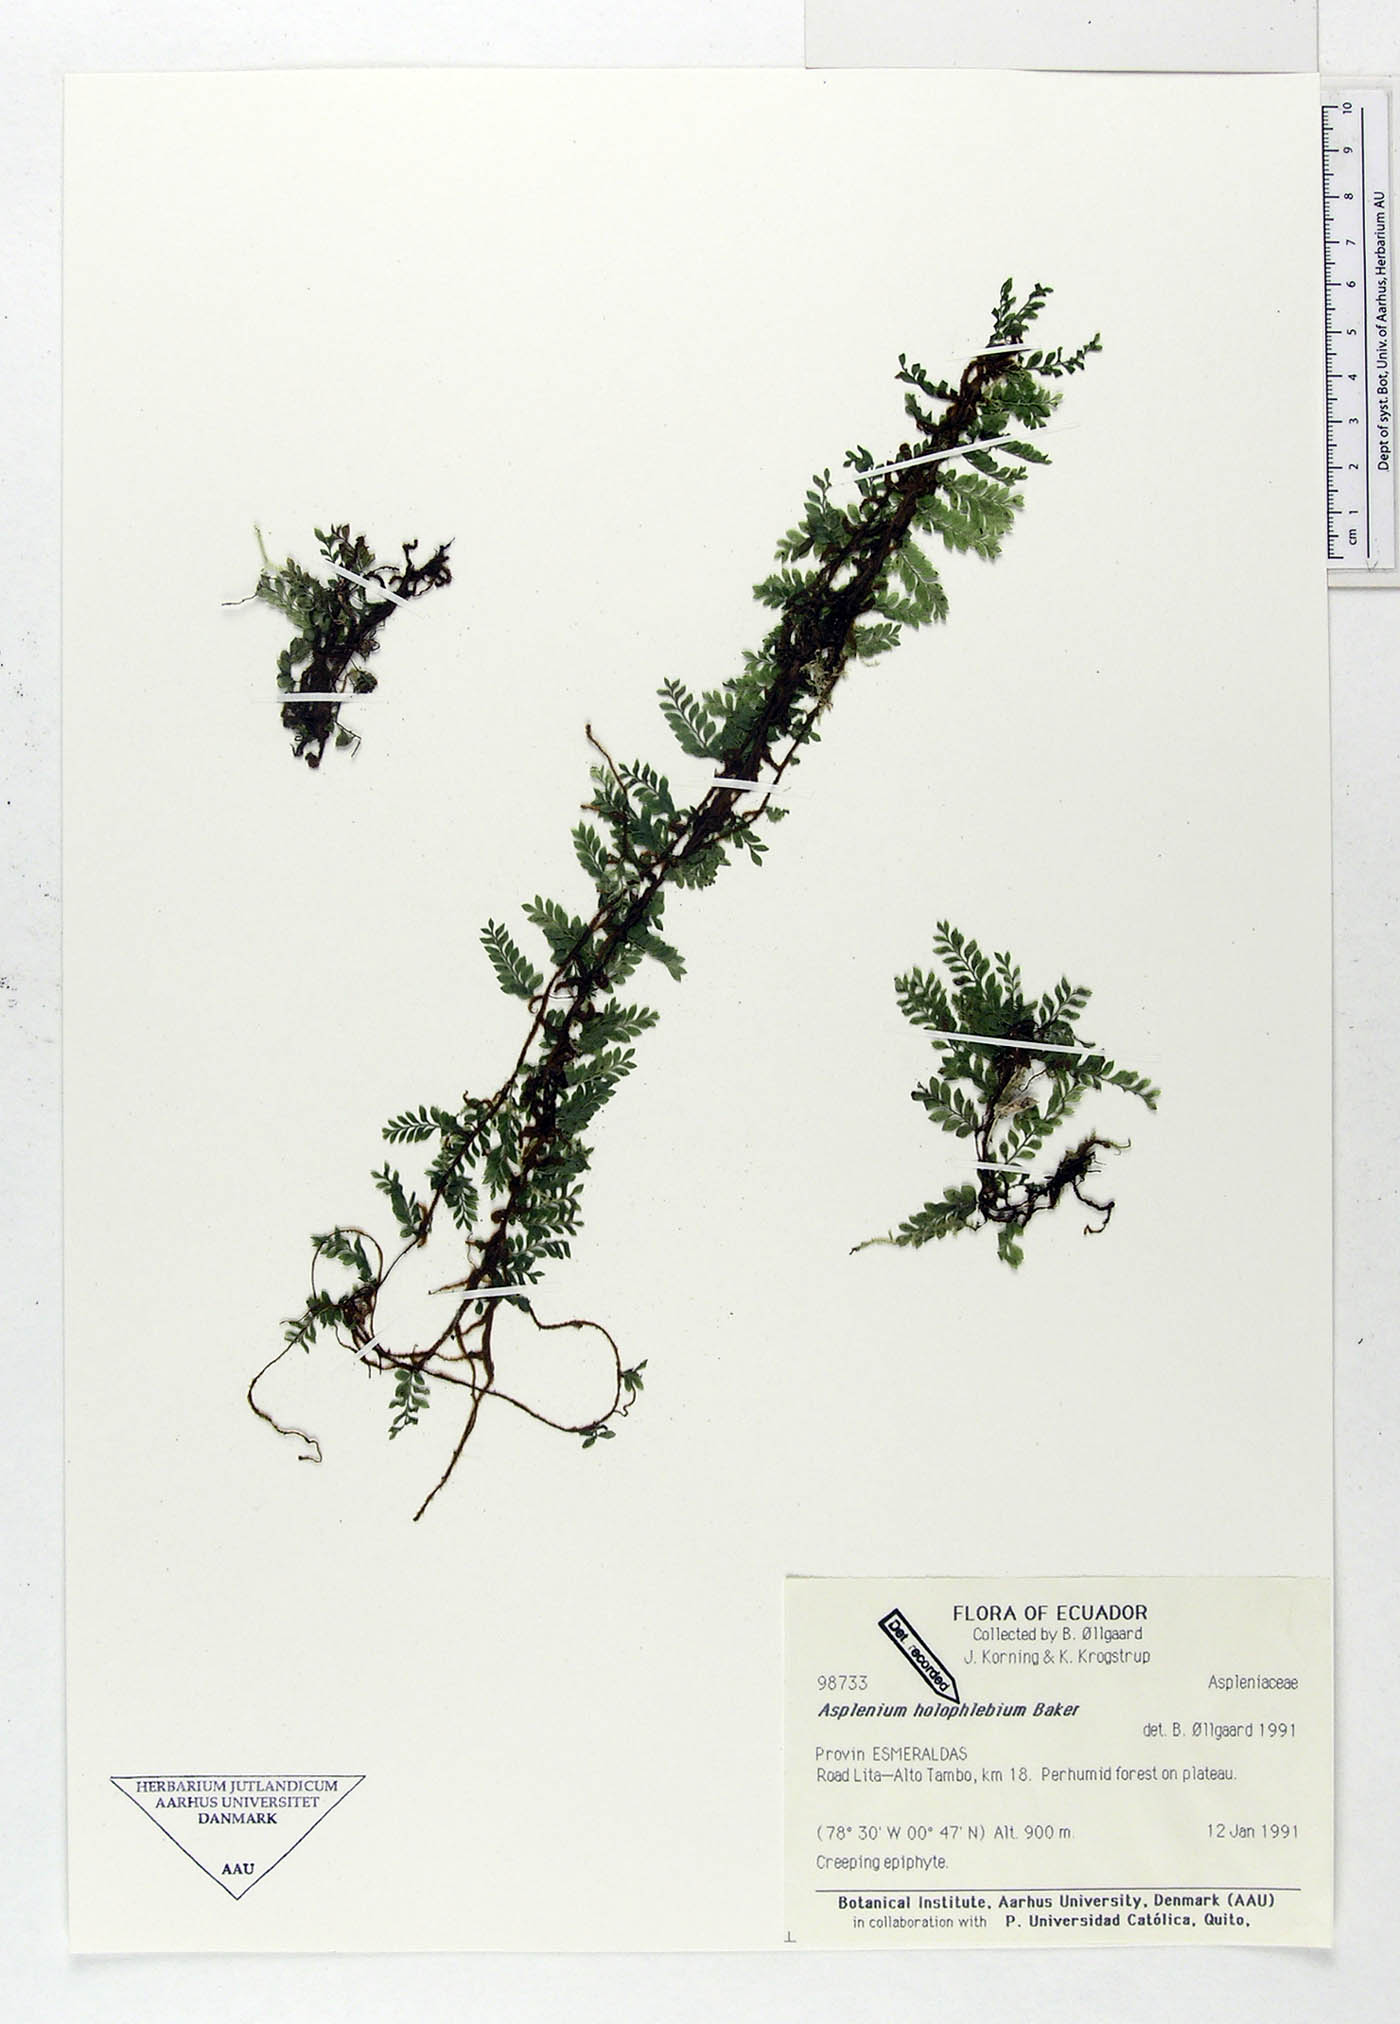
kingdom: Plantae
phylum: Tracheophyta
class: Polypodiopsida
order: Polypodiales
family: Aspleniaceae
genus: Asplenium
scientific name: Asplenium holophlebium
